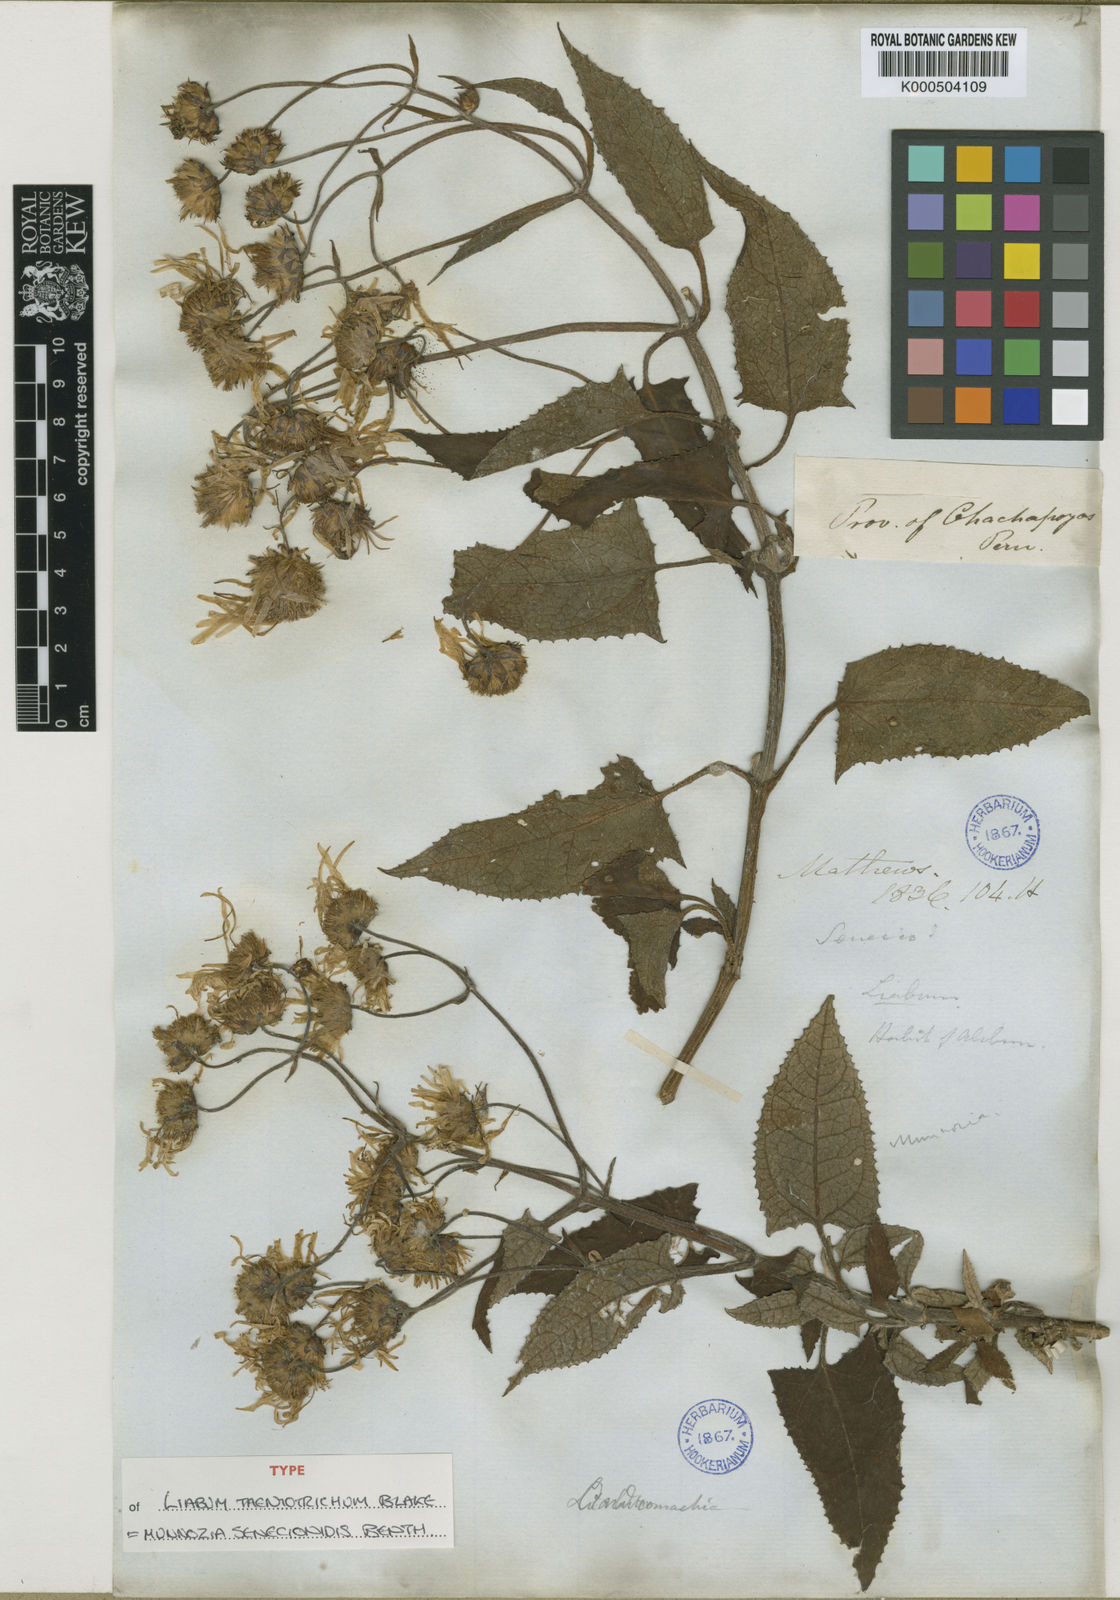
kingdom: Plantae
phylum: Tracheophyta
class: Magnoliopsida
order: Asterales
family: Asteraceae
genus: Munnozia
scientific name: Munnozia senecionidis
